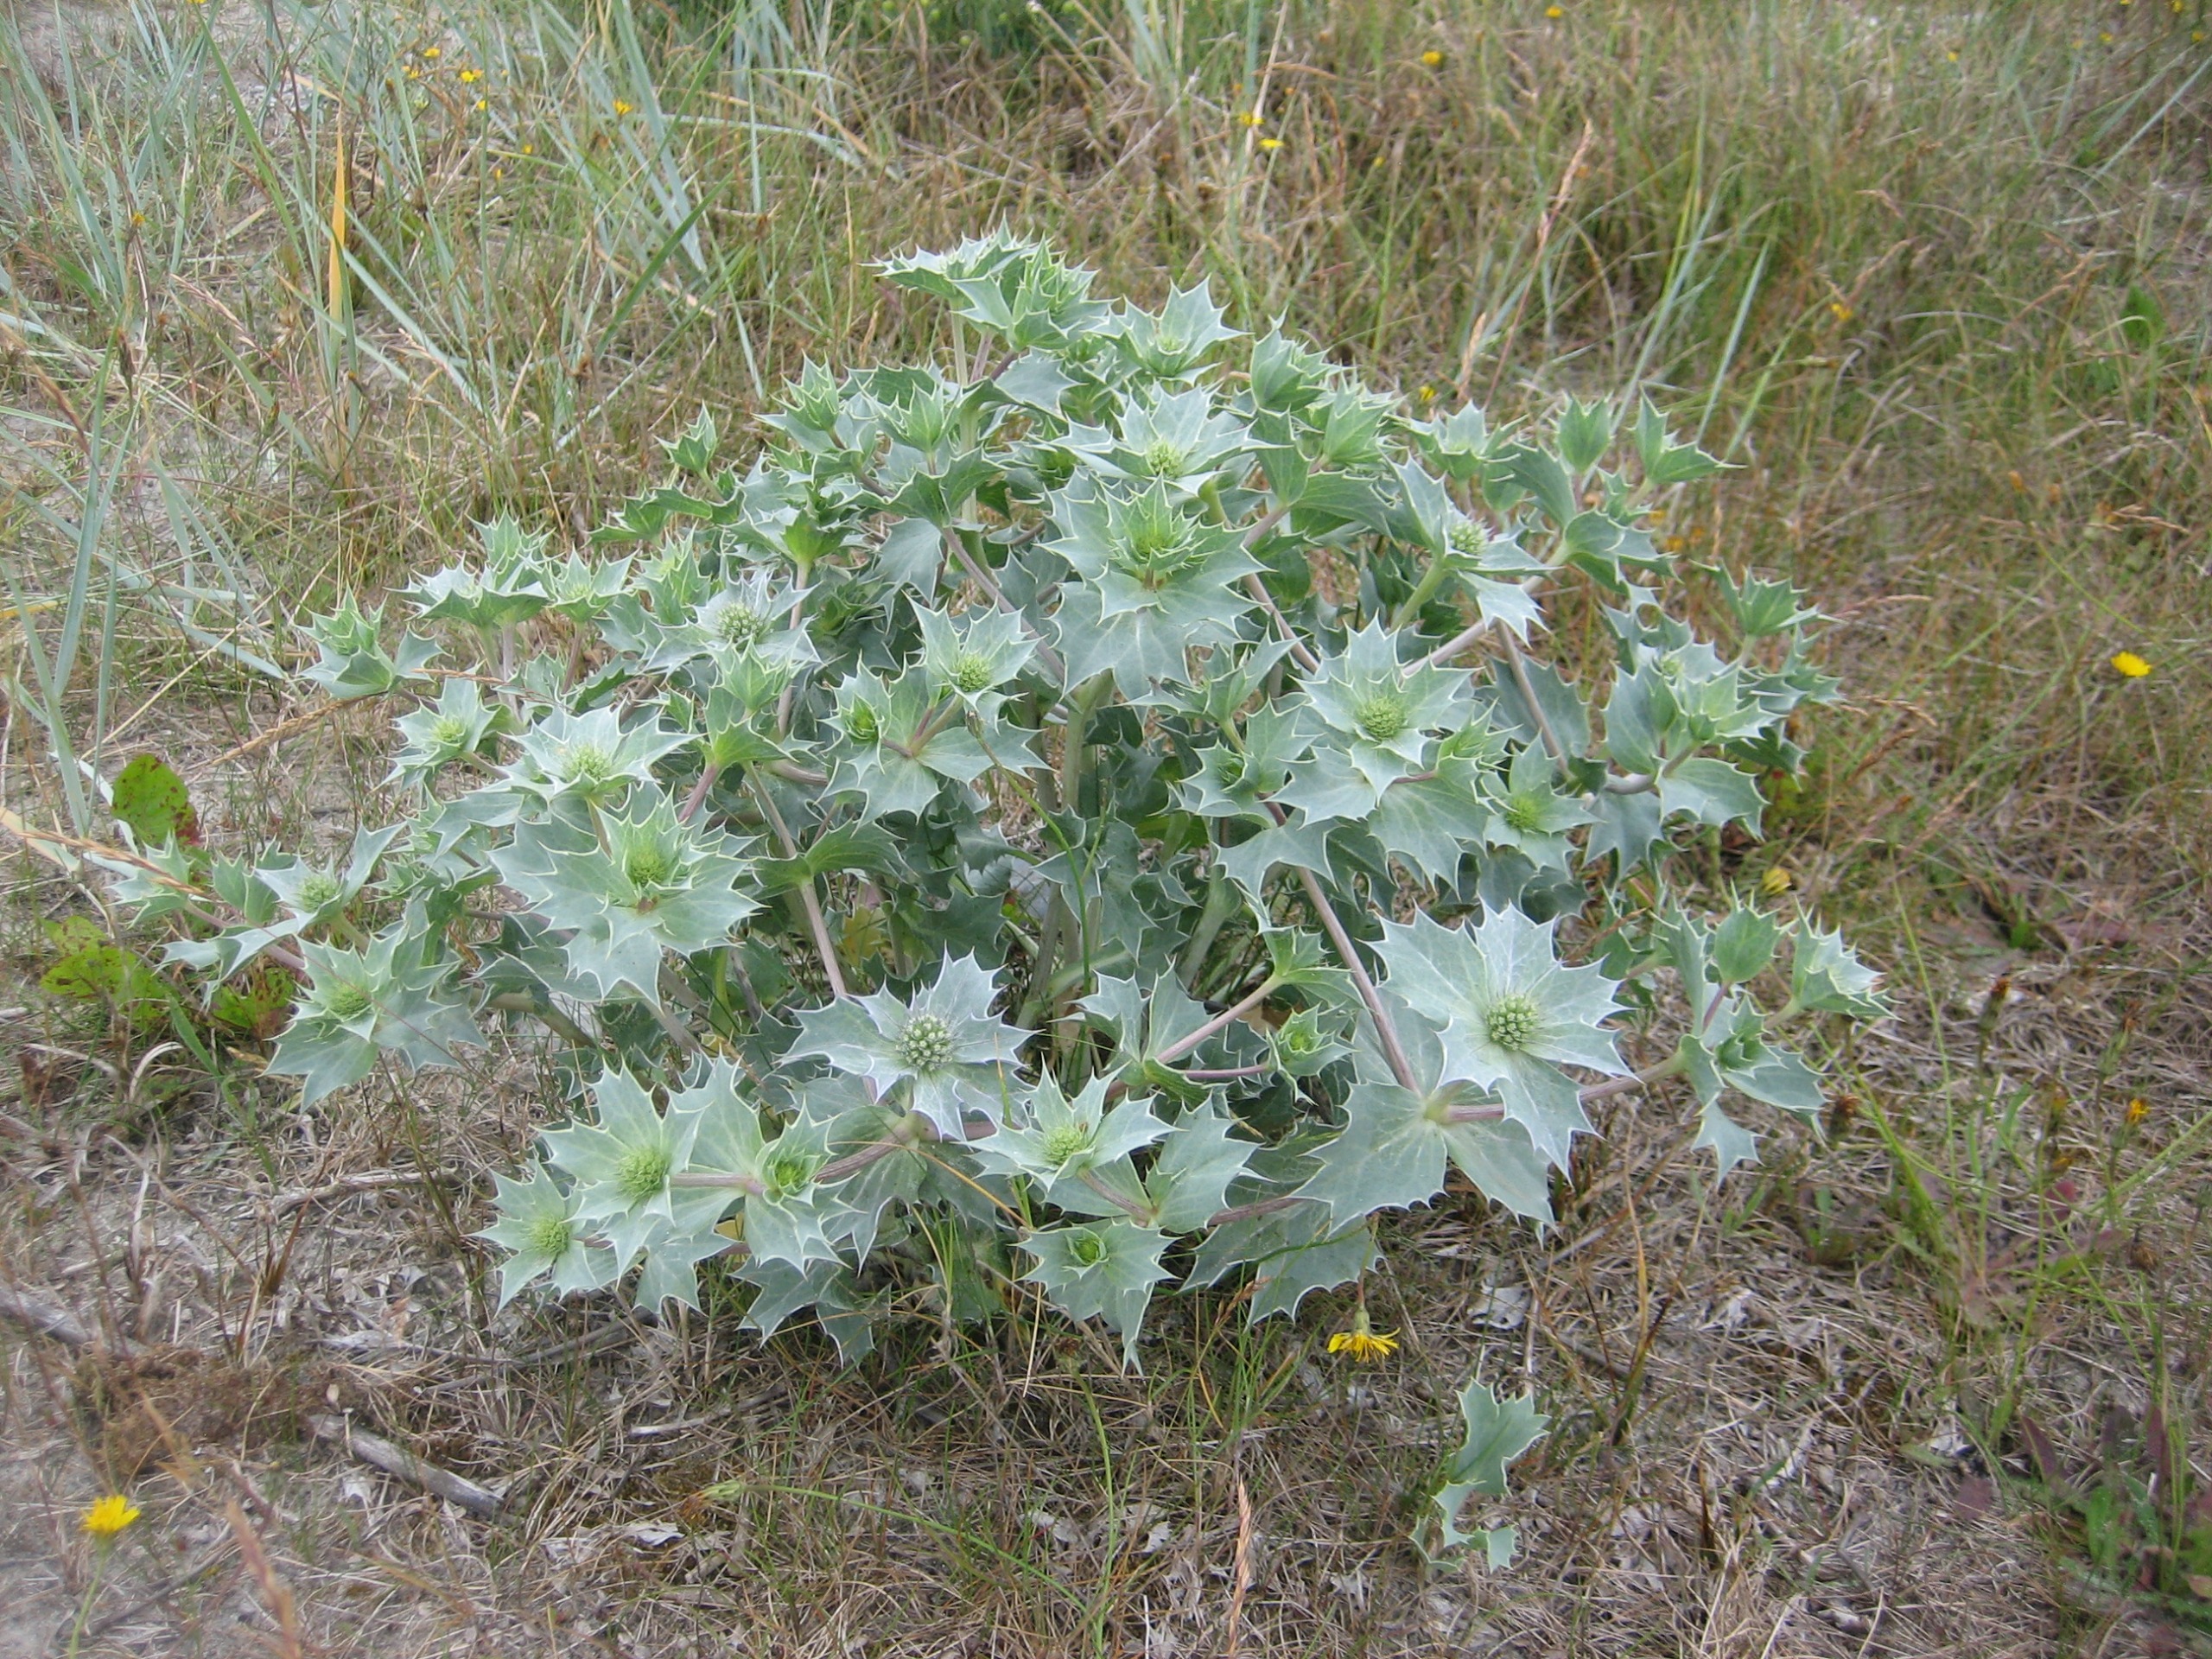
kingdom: Plantae
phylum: Tracheophyta
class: Magnoliopsida
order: Apiales
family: Apiaceae
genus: Eryngium
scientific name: Eryngium maritimum
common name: Strand-mandstro
